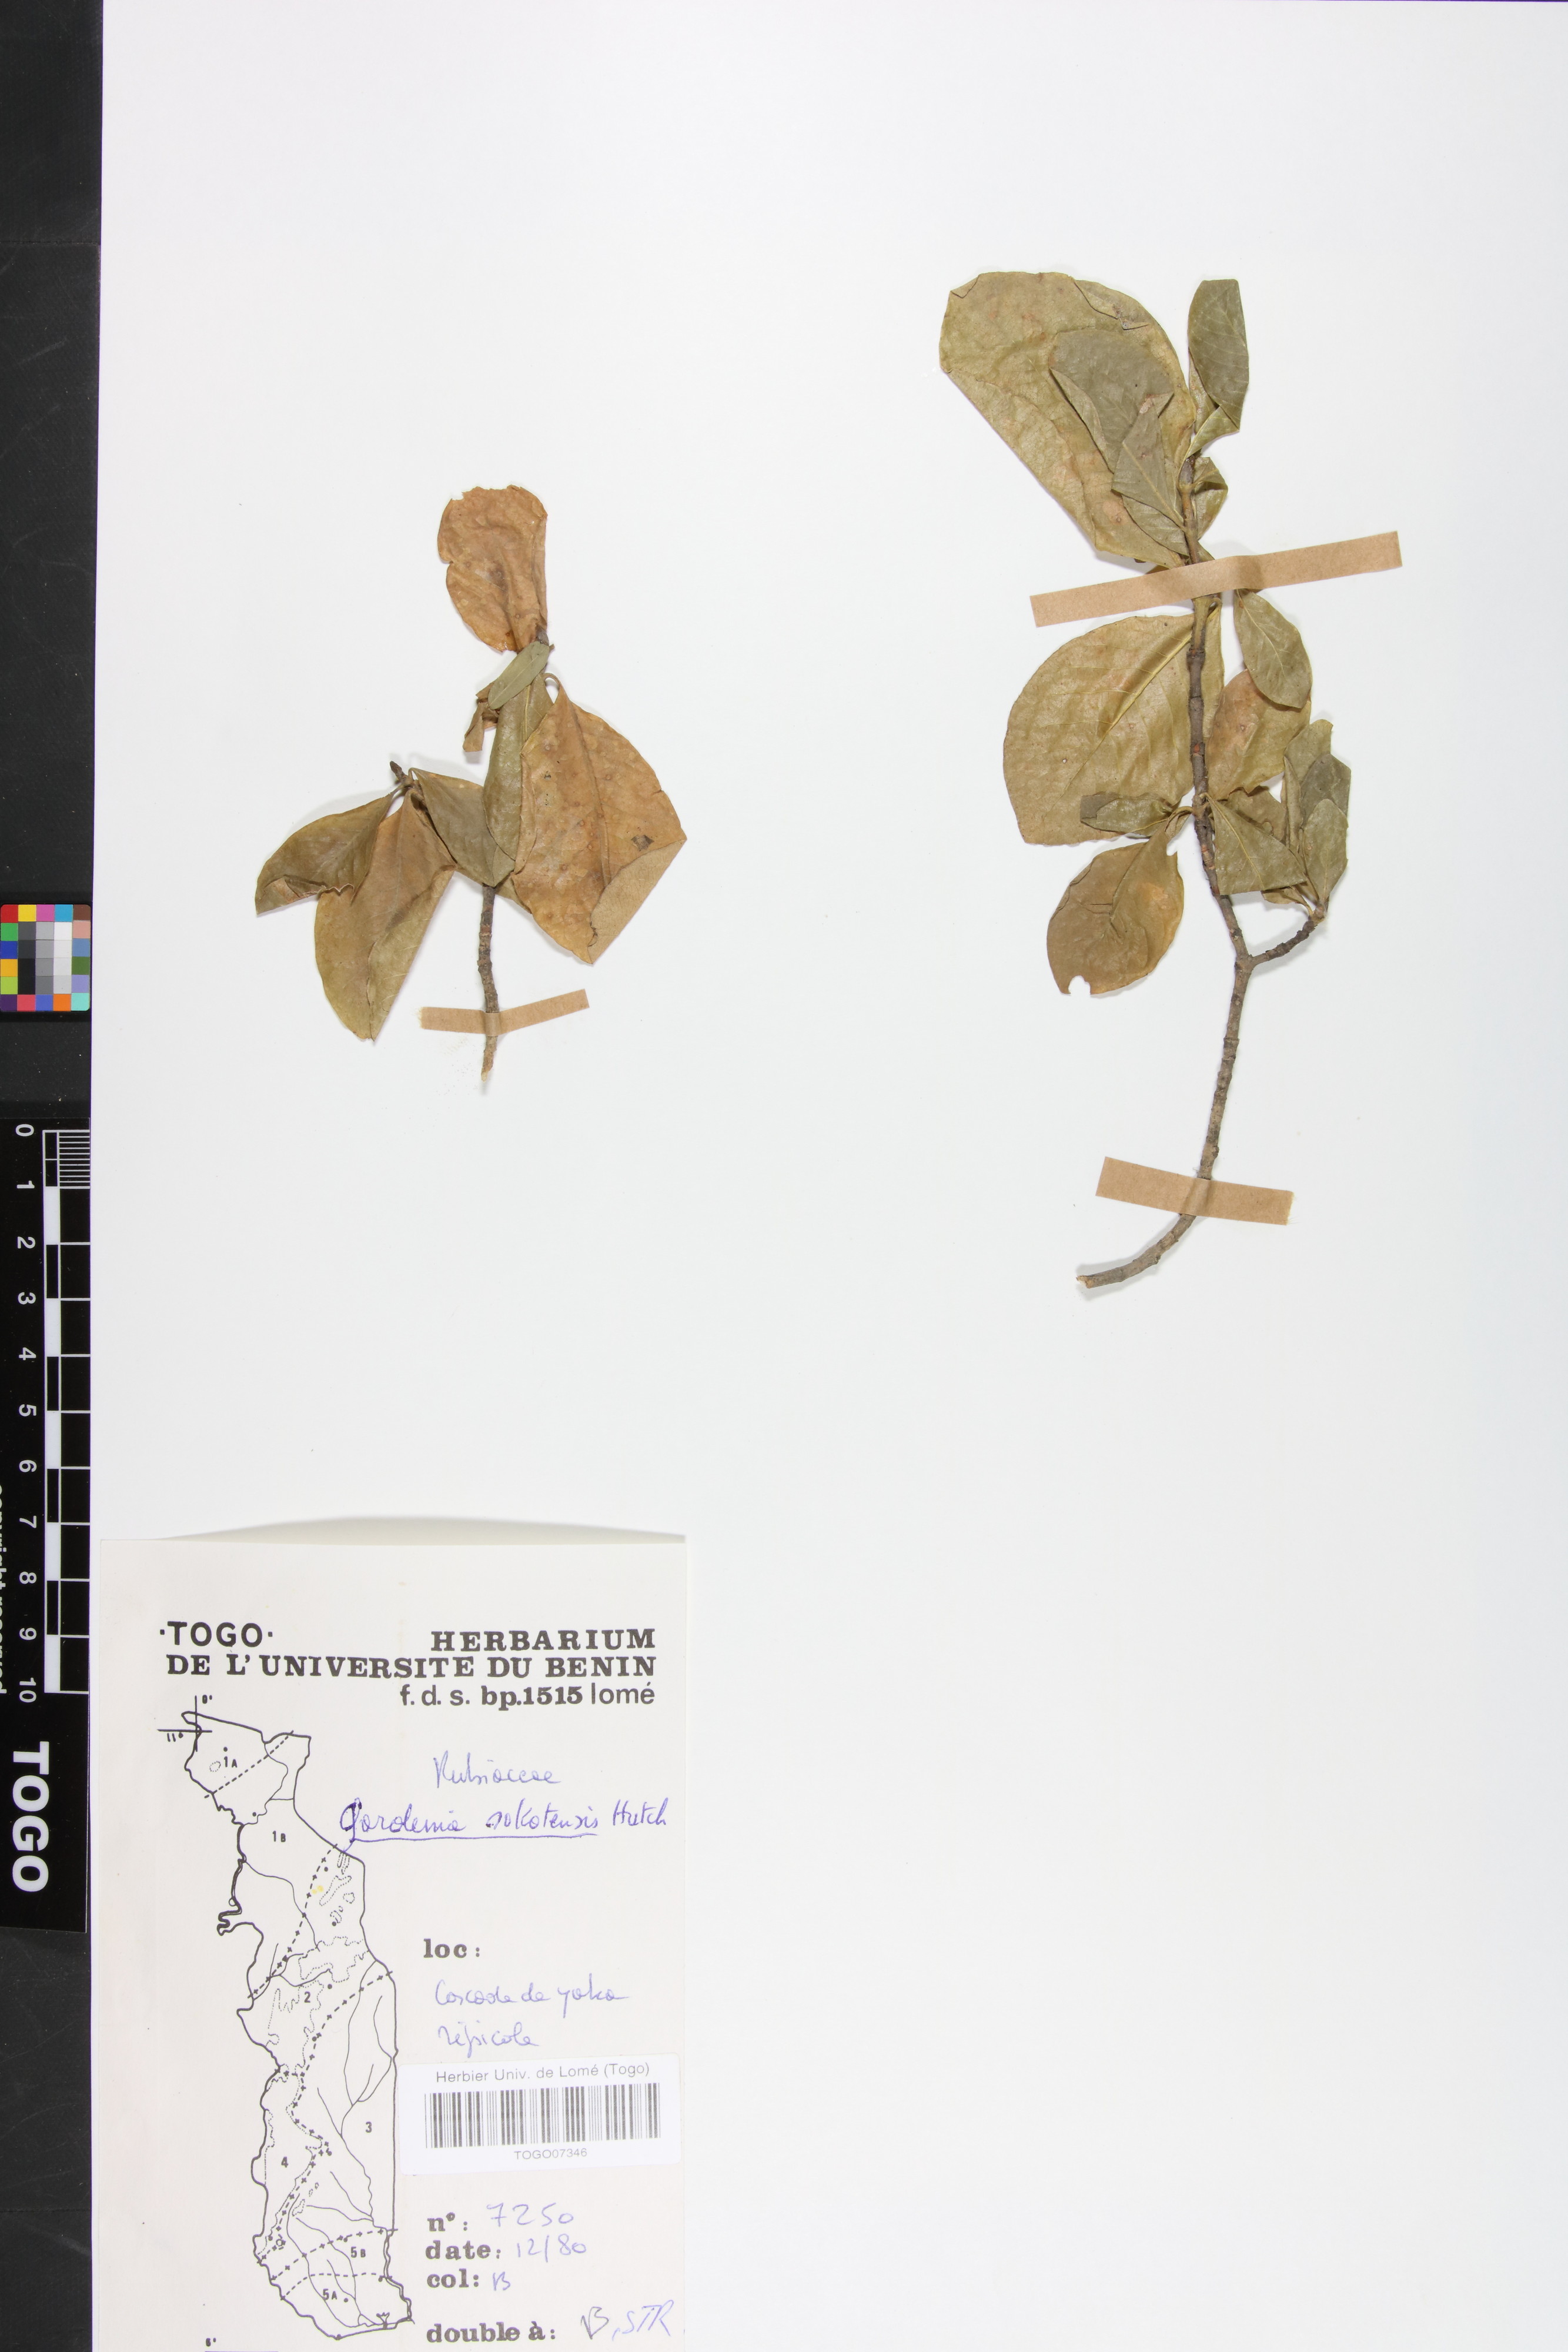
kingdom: Plantae
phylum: Tracheophyta
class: Magnoliopsida
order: Gentianales
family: Rubiaceae
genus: Gardenia
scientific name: Gardenia sokotensis
